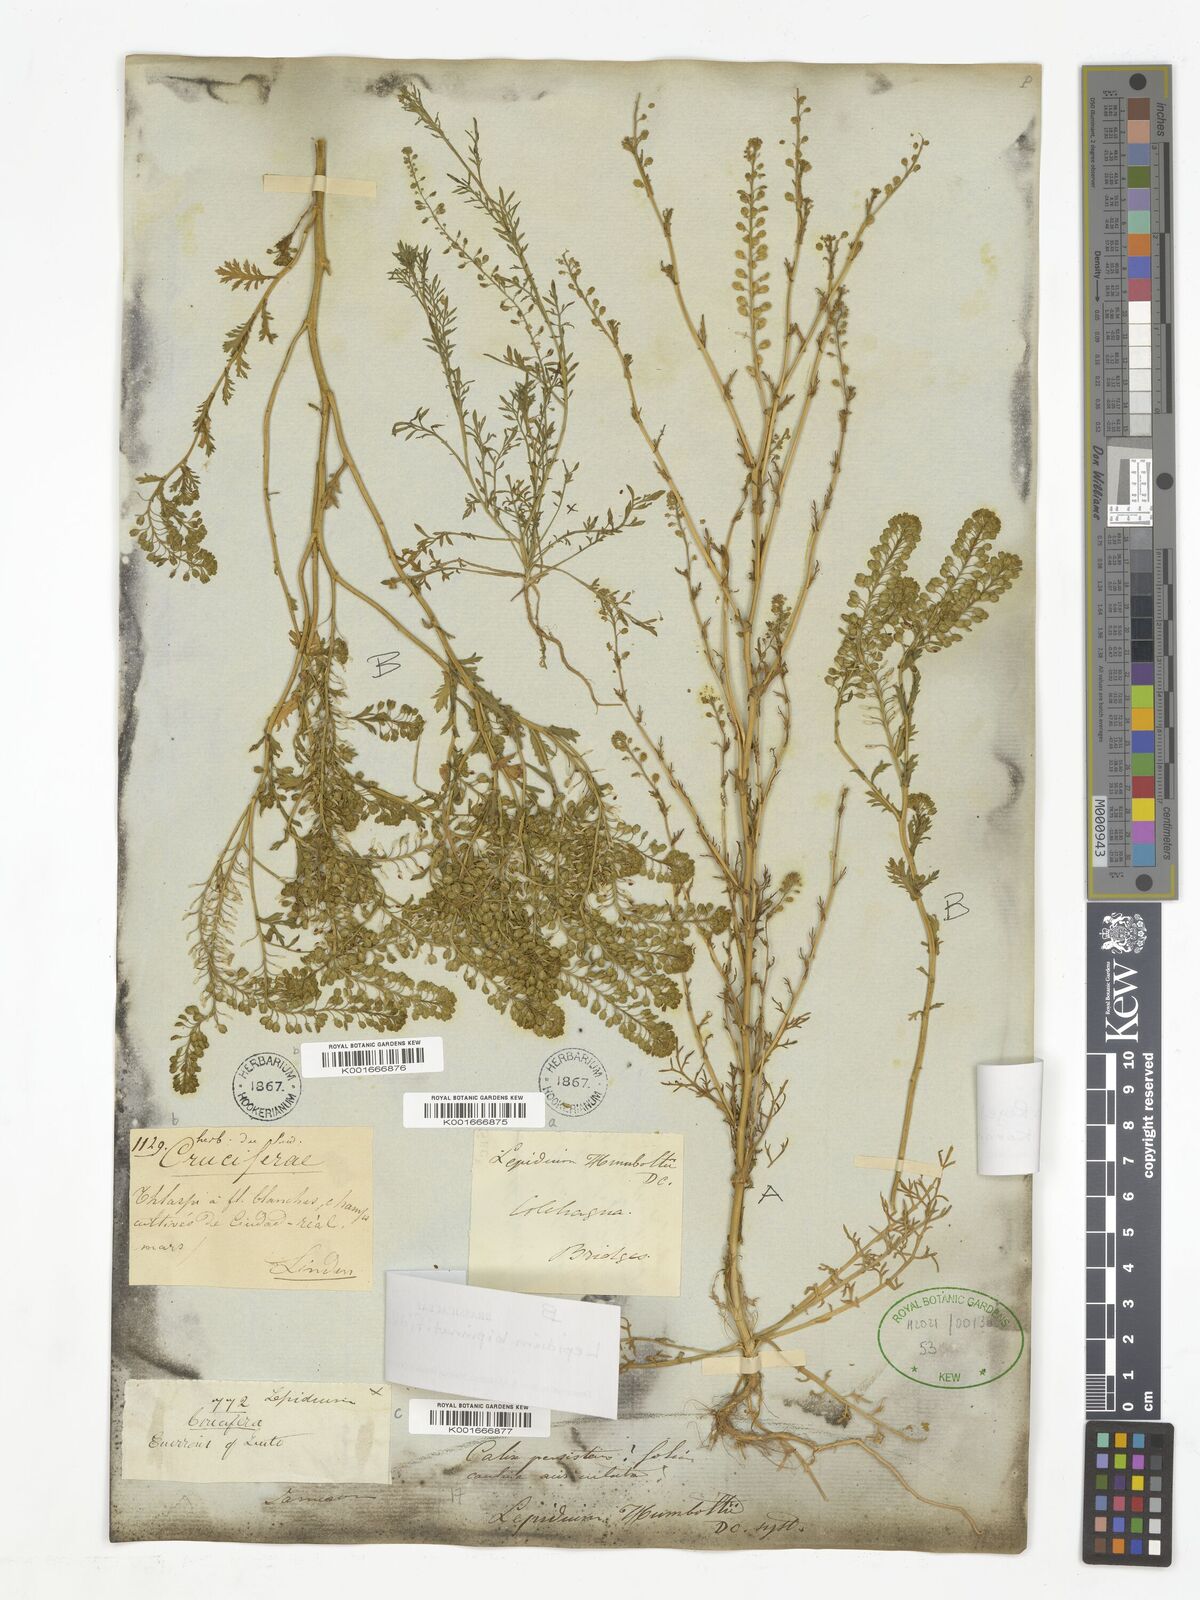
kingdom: Plantae
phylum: Tracheophyta
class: Magnoliopsida
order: Brassicales
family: Brassicaceae
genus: Lepidium
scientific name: Lepidium bipinnatifidum
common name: Wayside pepperwort
